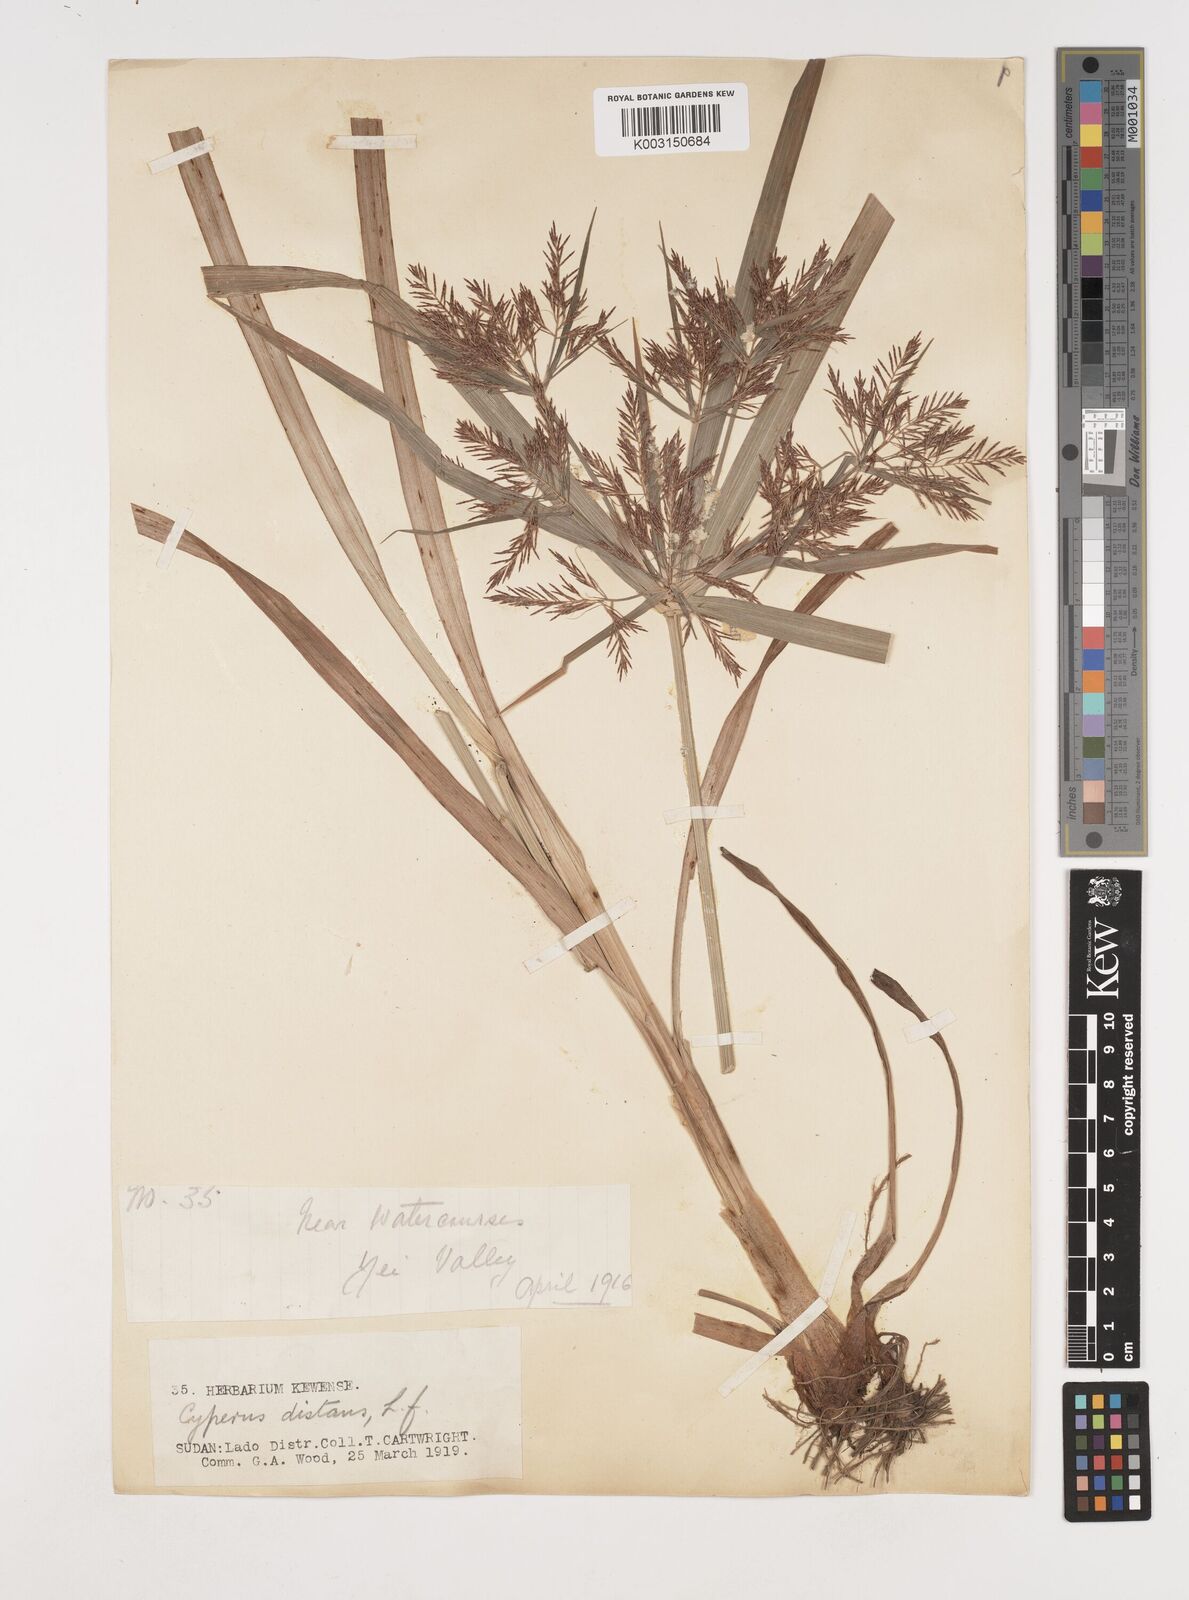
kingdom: Plantae
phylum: Tracheophyta
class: Liliopsida
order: Poales
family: Cyperaceae
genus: Cyperus
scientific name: Cyperus distans
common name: Slender cyperus
